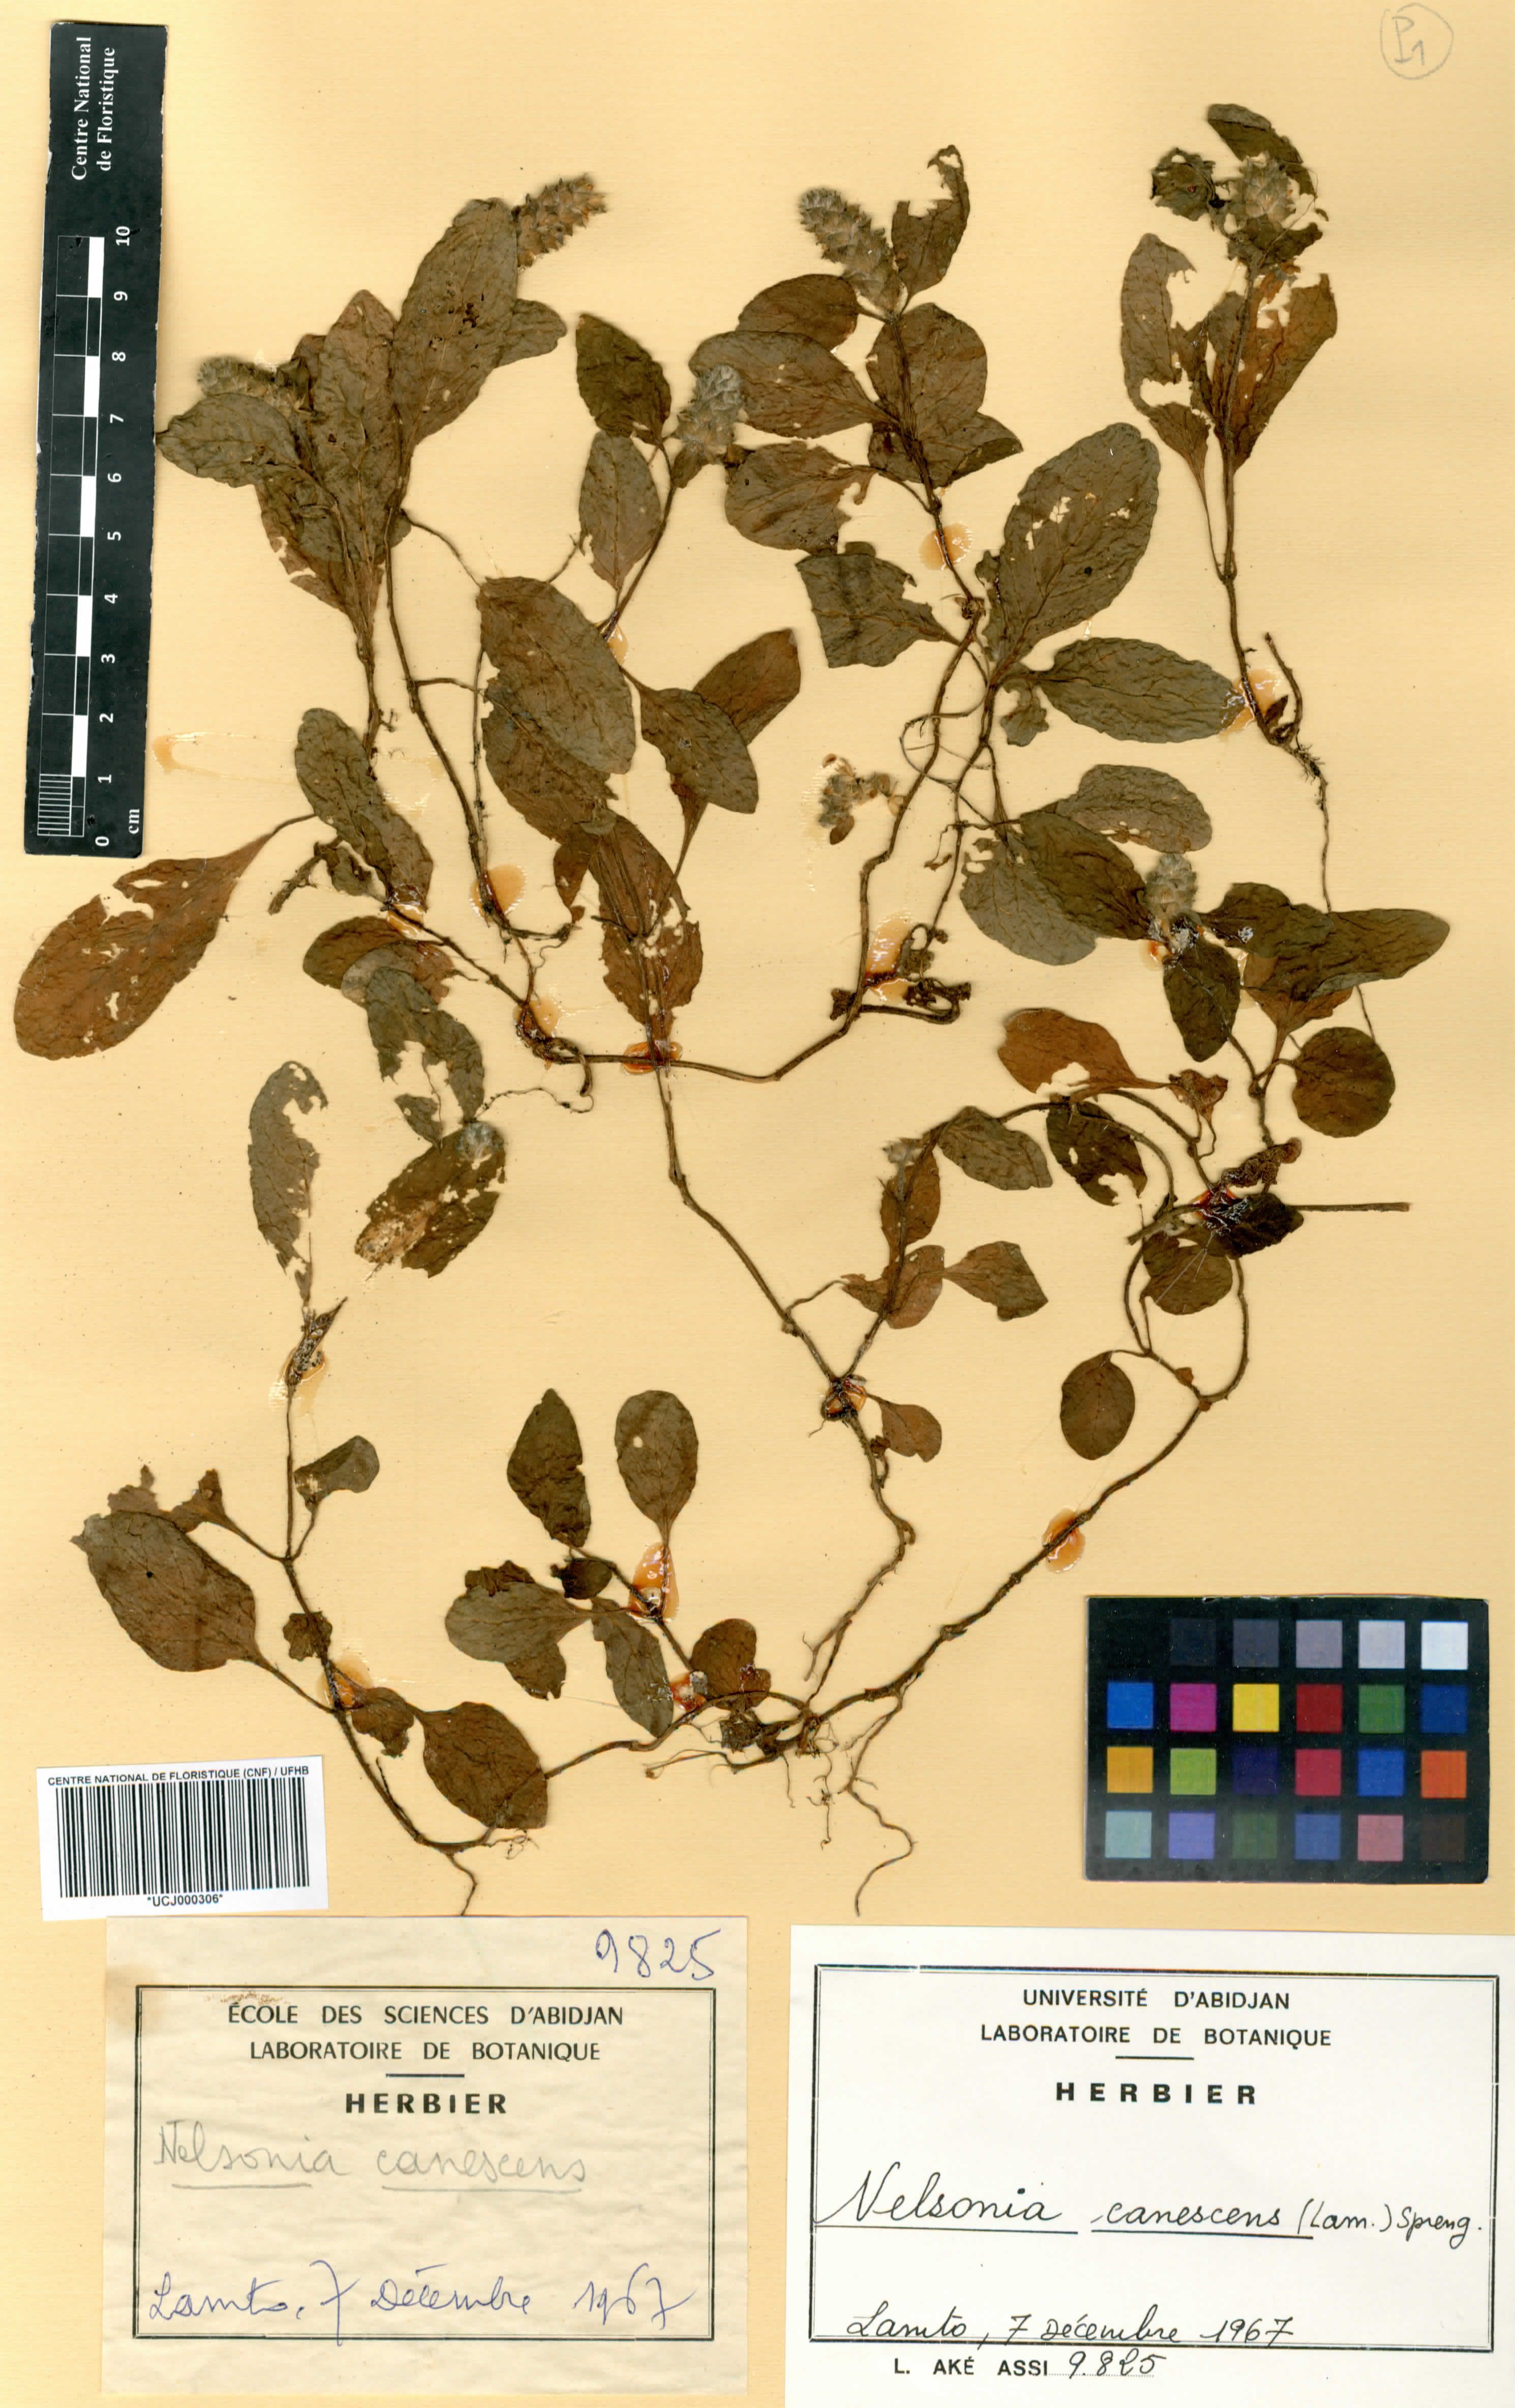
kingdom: Plantae
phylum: Tracheophyta
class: Magnoliopsida
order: Lamiales
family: Acanthaceae
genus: Nelsonia
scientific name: Nelsonia canescens
